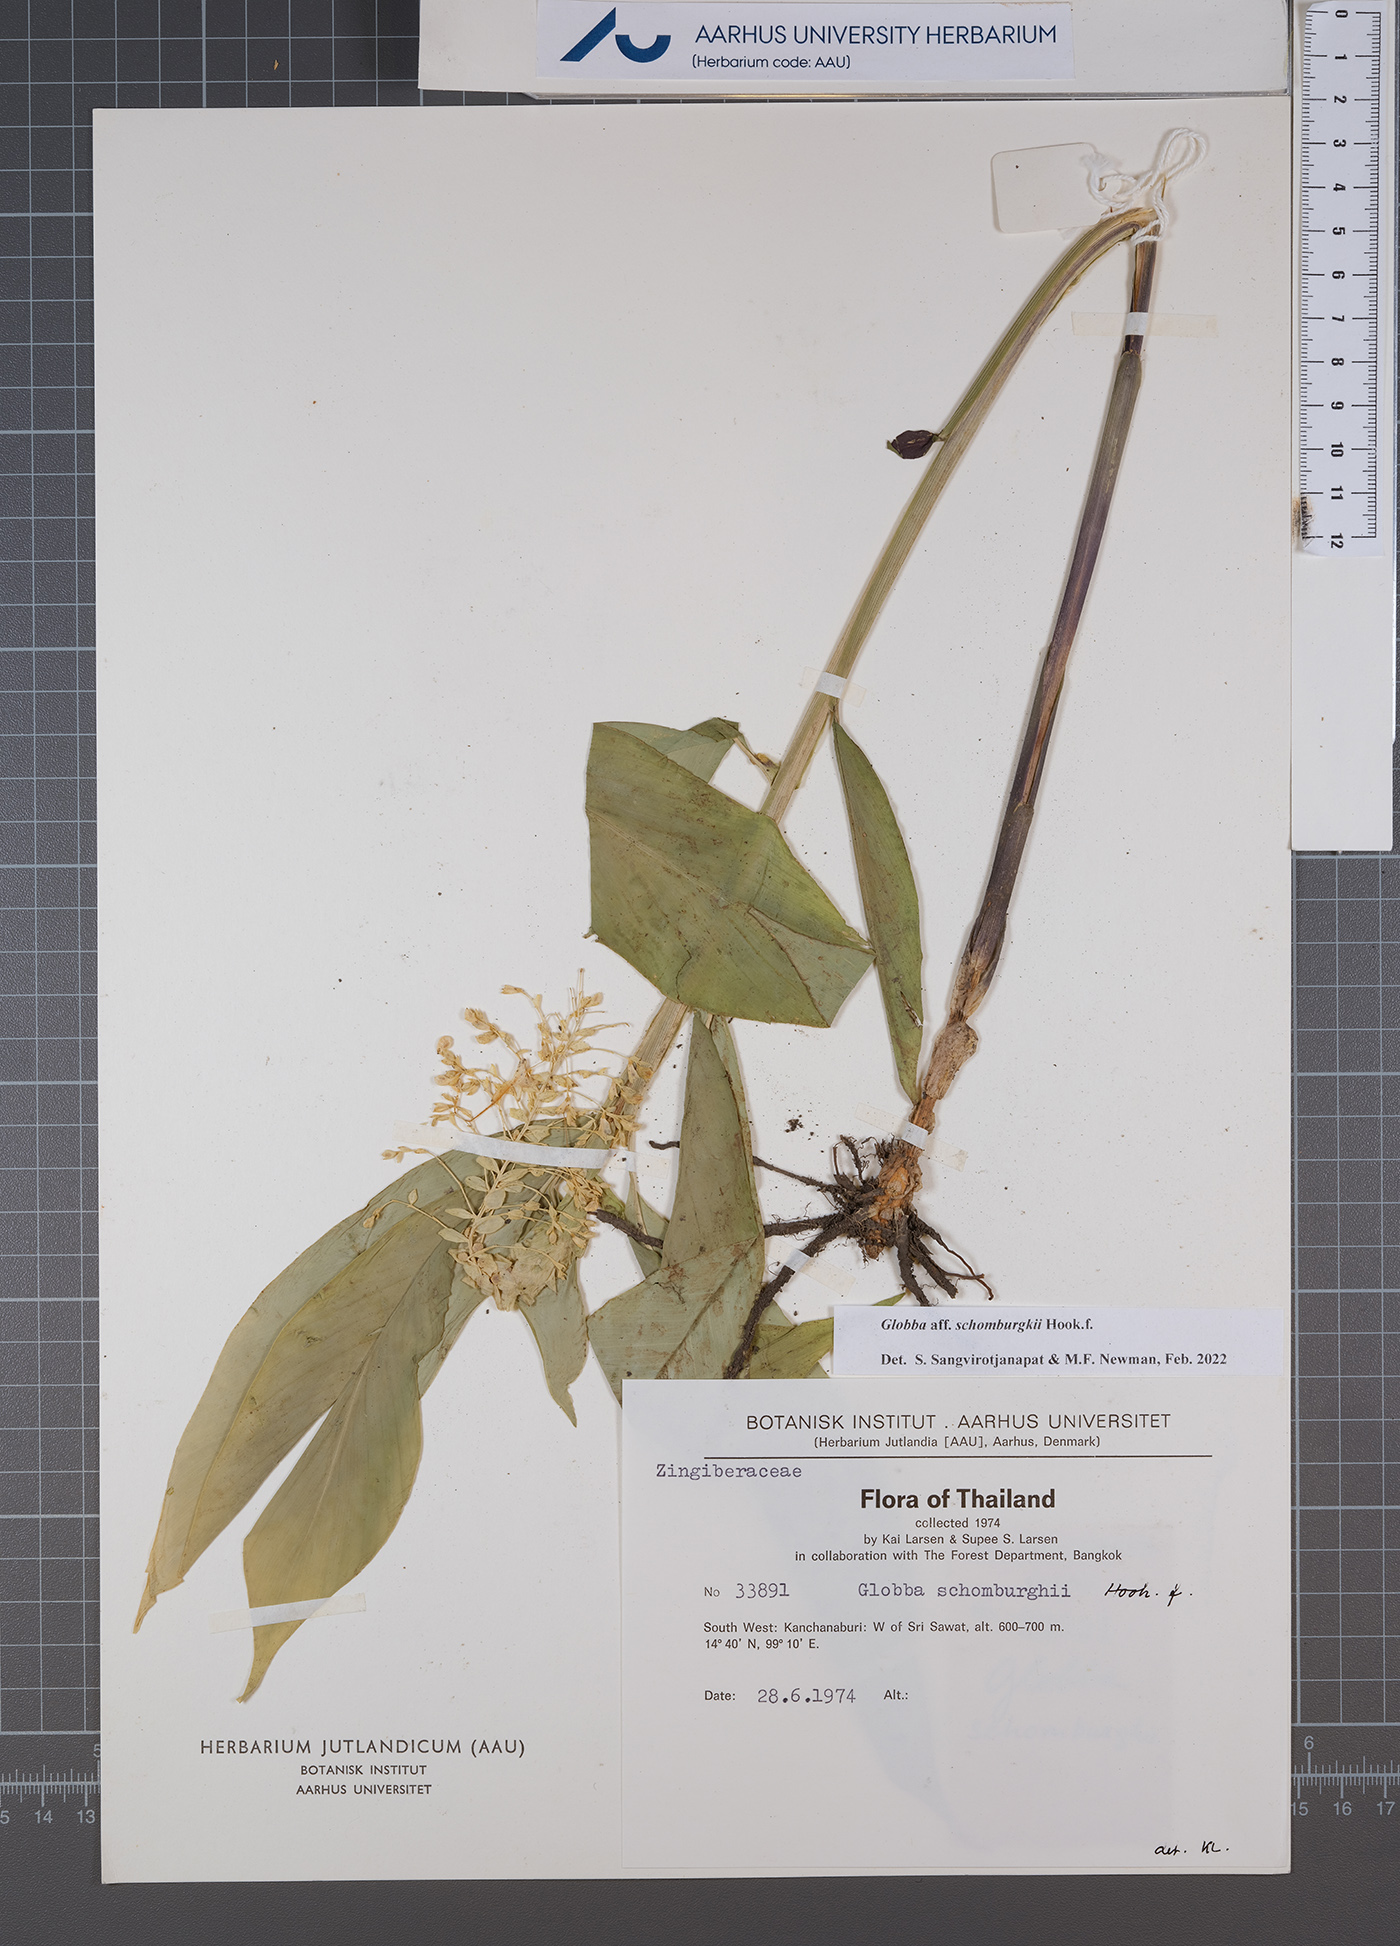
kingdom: Plantae
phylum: Tracheophyta
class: Liliopsida
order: Zingiberales
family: Zingiberaceae
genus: Globba
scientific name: Globba schomburgkii
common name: Dancing girl ginger
